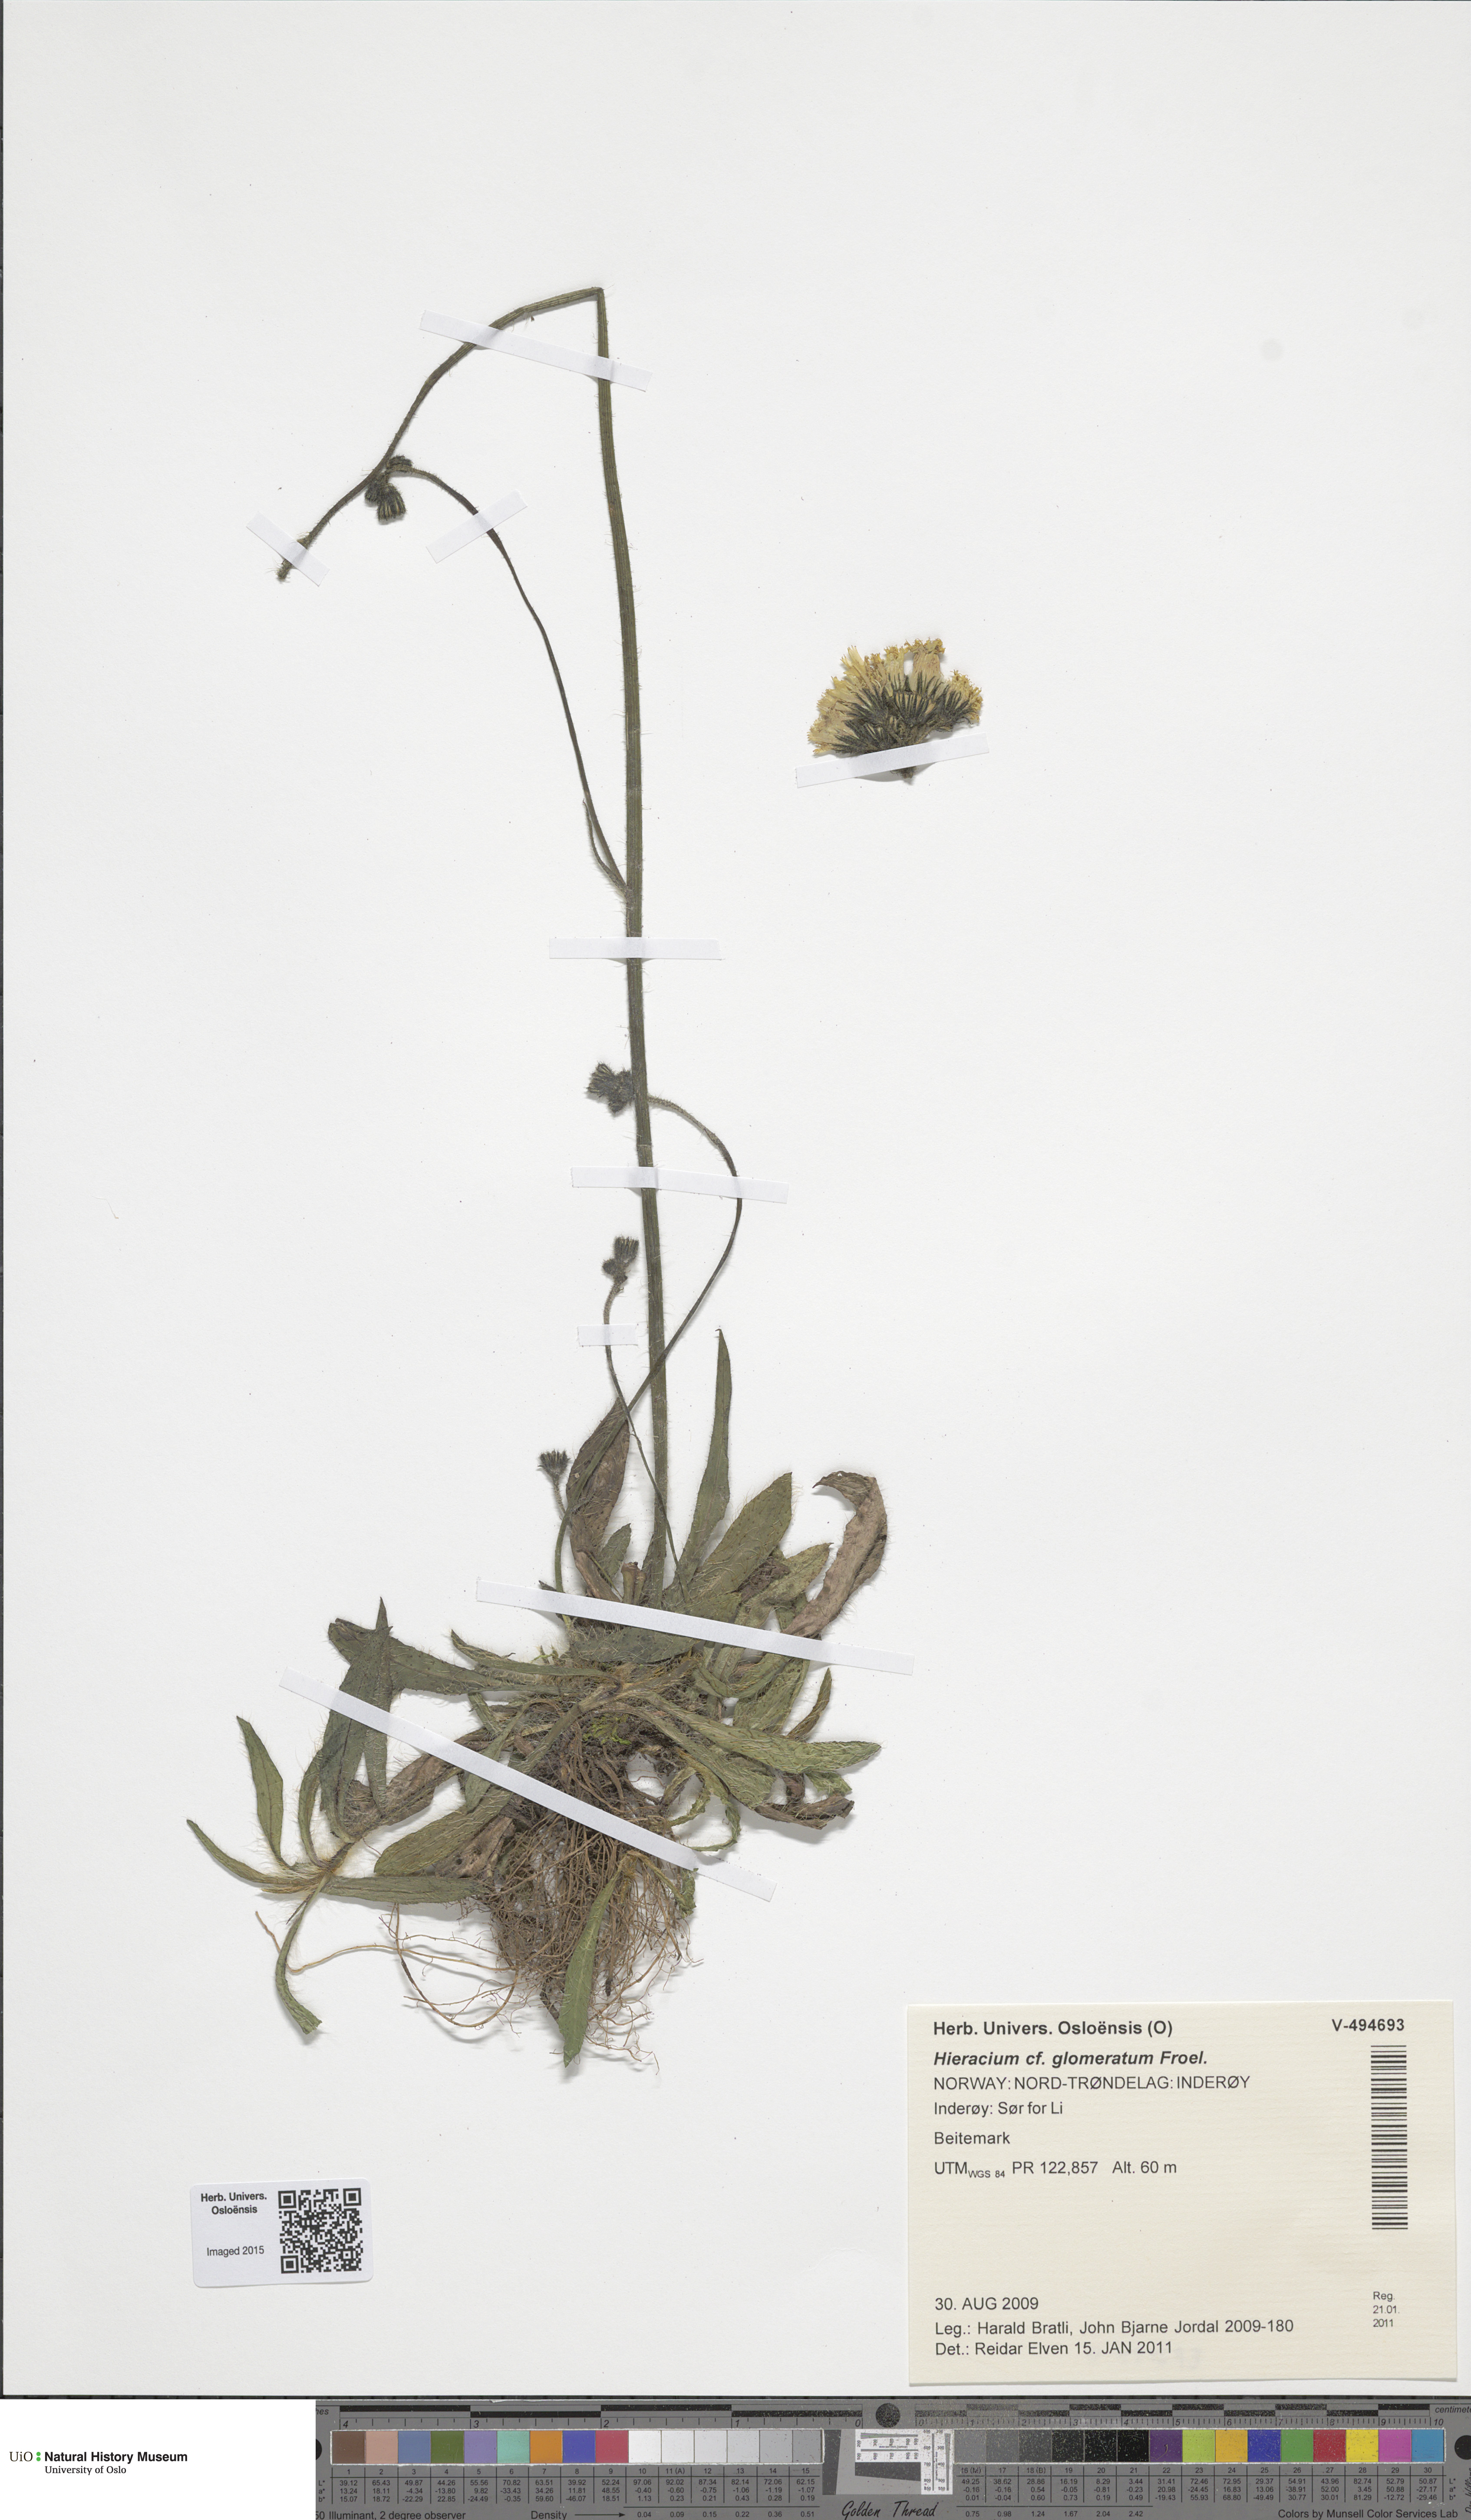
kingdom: Plantae
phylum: Tracheophyta
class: Magnoliopsida
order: Asterales
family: Asteraceae
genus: Pilosella
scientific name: Pilosella glomerata
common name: Queen devil hawkweed
